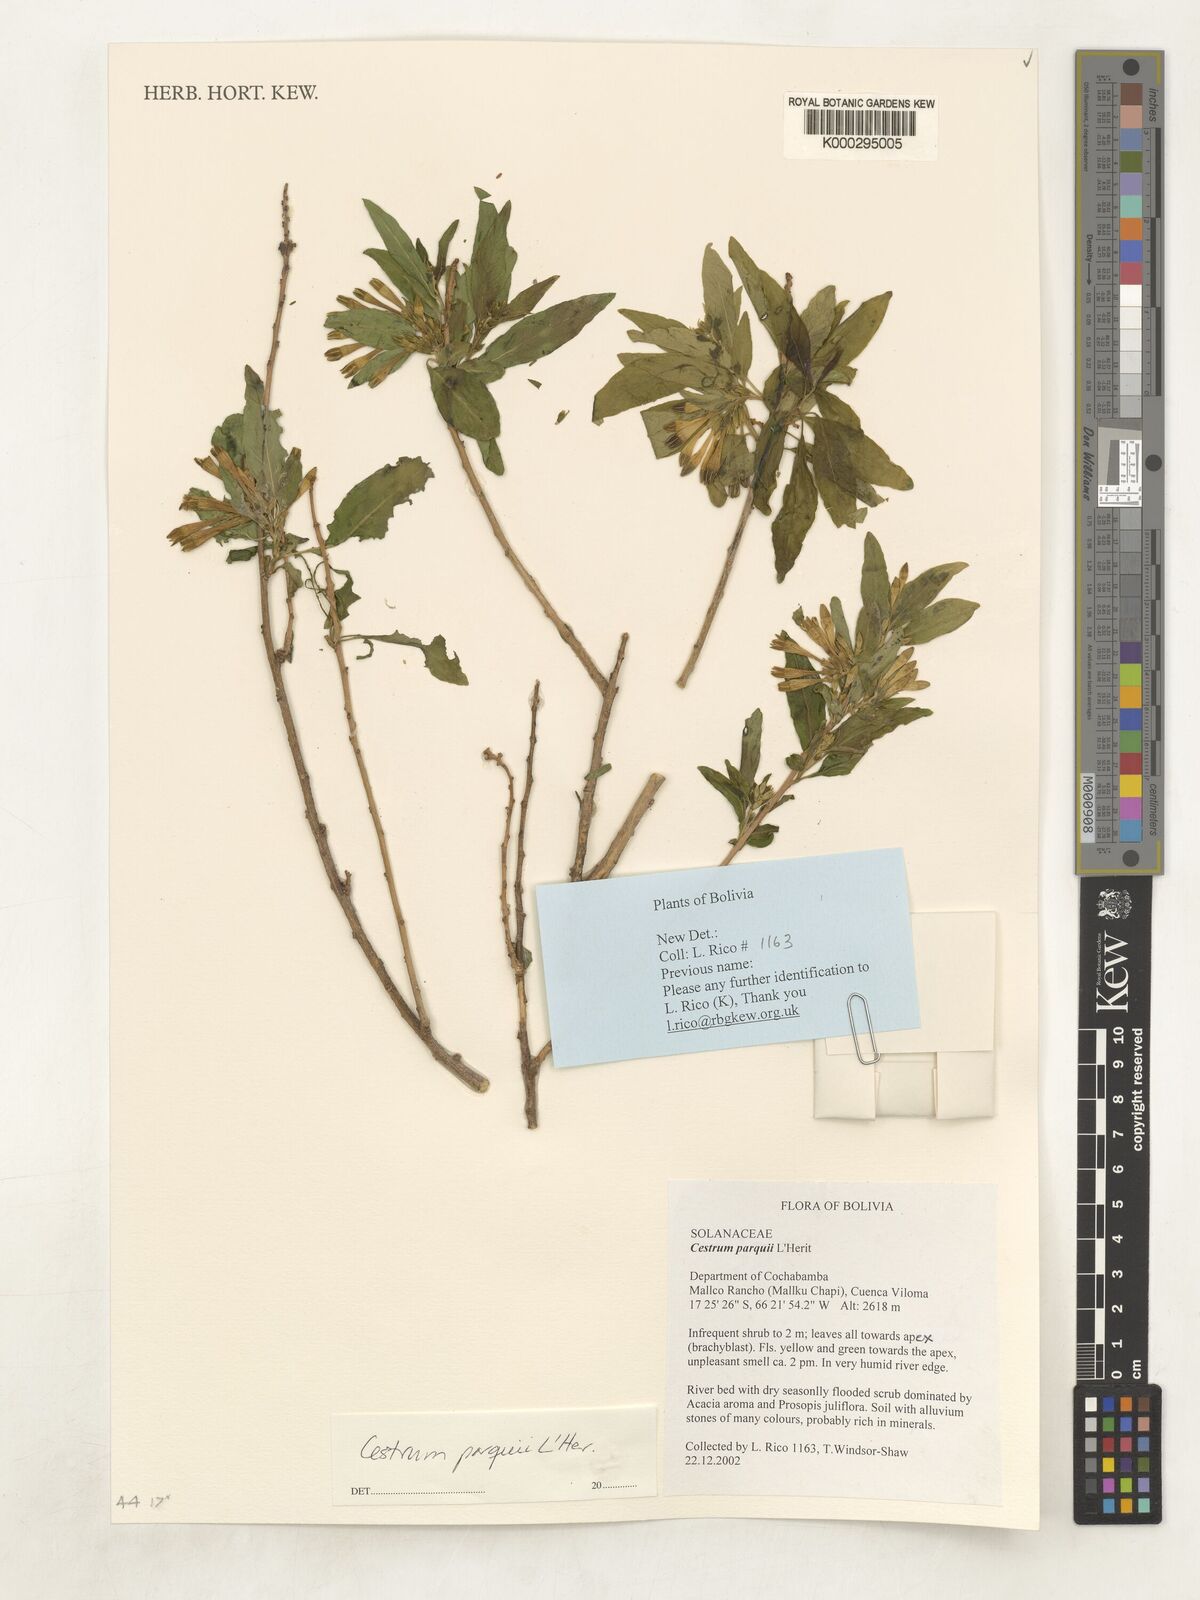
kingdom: Plantae
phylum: Tracheophyta
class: Magnoliopsida
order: Solanales
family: Solanaceae
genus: Cestrum
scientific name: Cestrum
